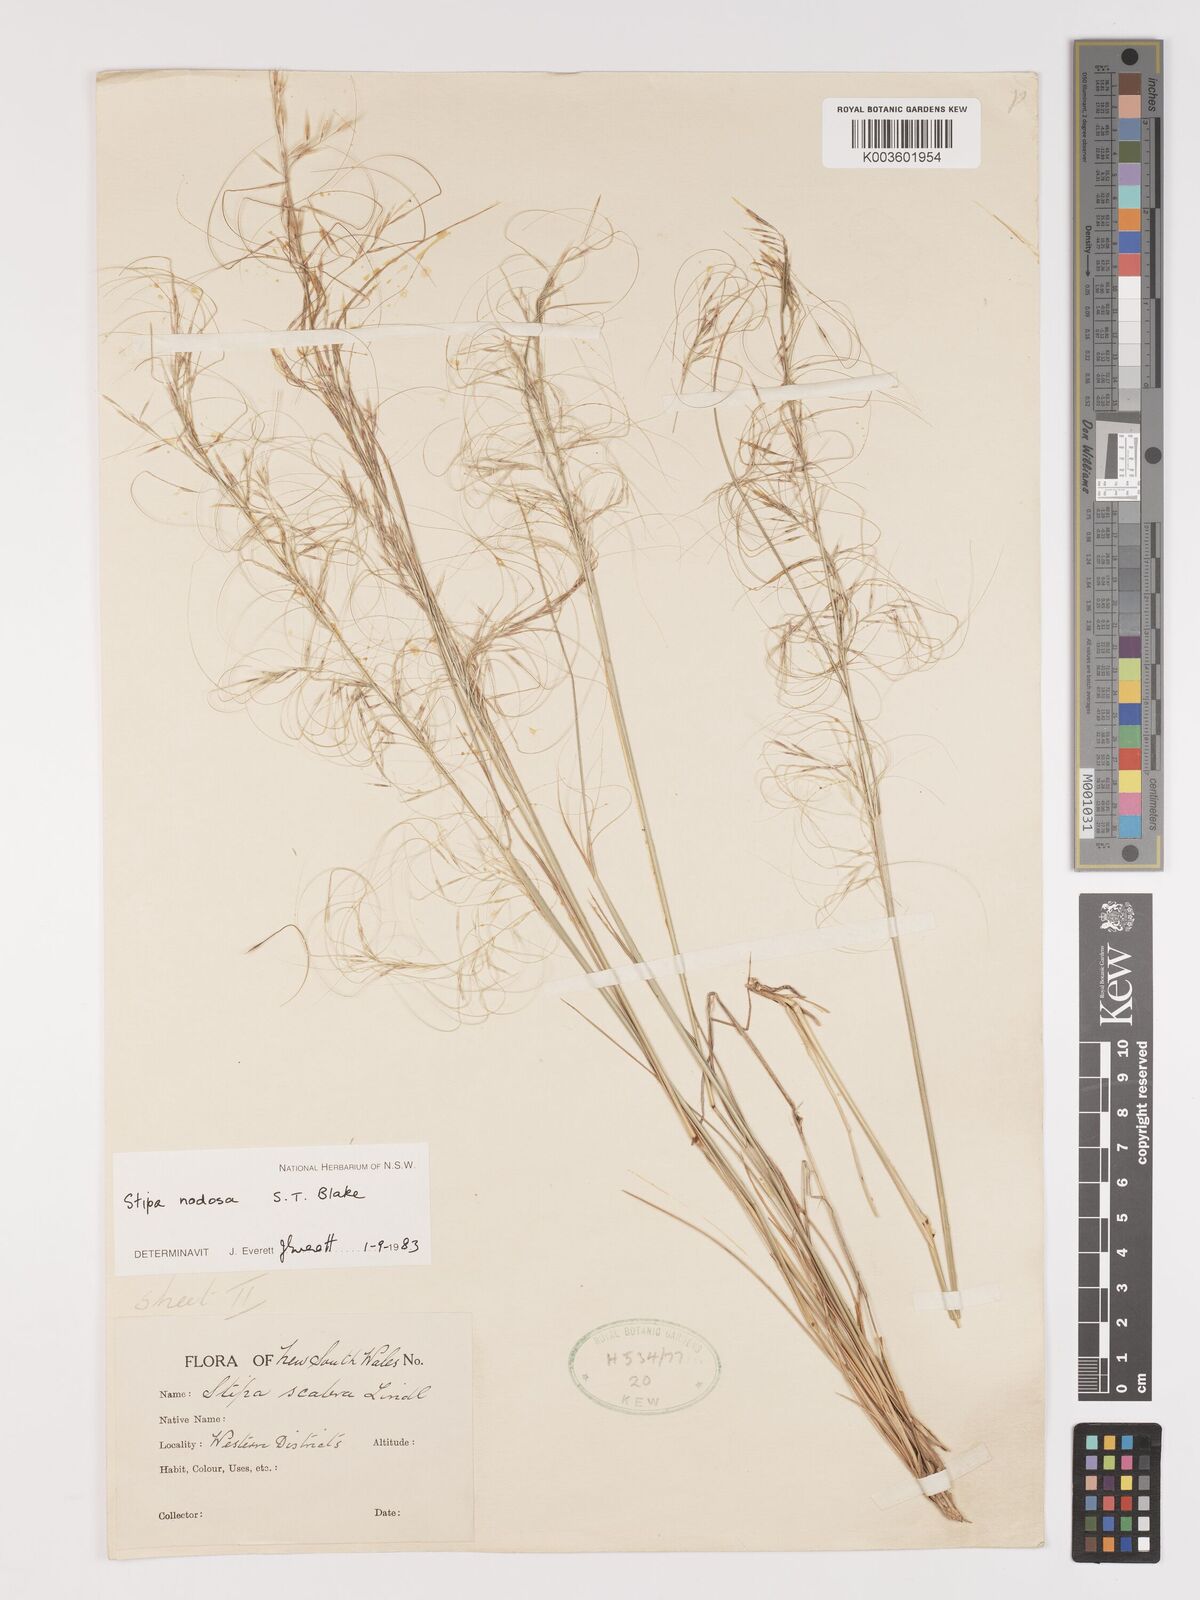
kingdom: Plantae
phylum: Tracheophyta
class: Liliopsida
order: Poales
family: Poaceae
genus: Austrostipa
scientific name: Austrostipa nodosa
